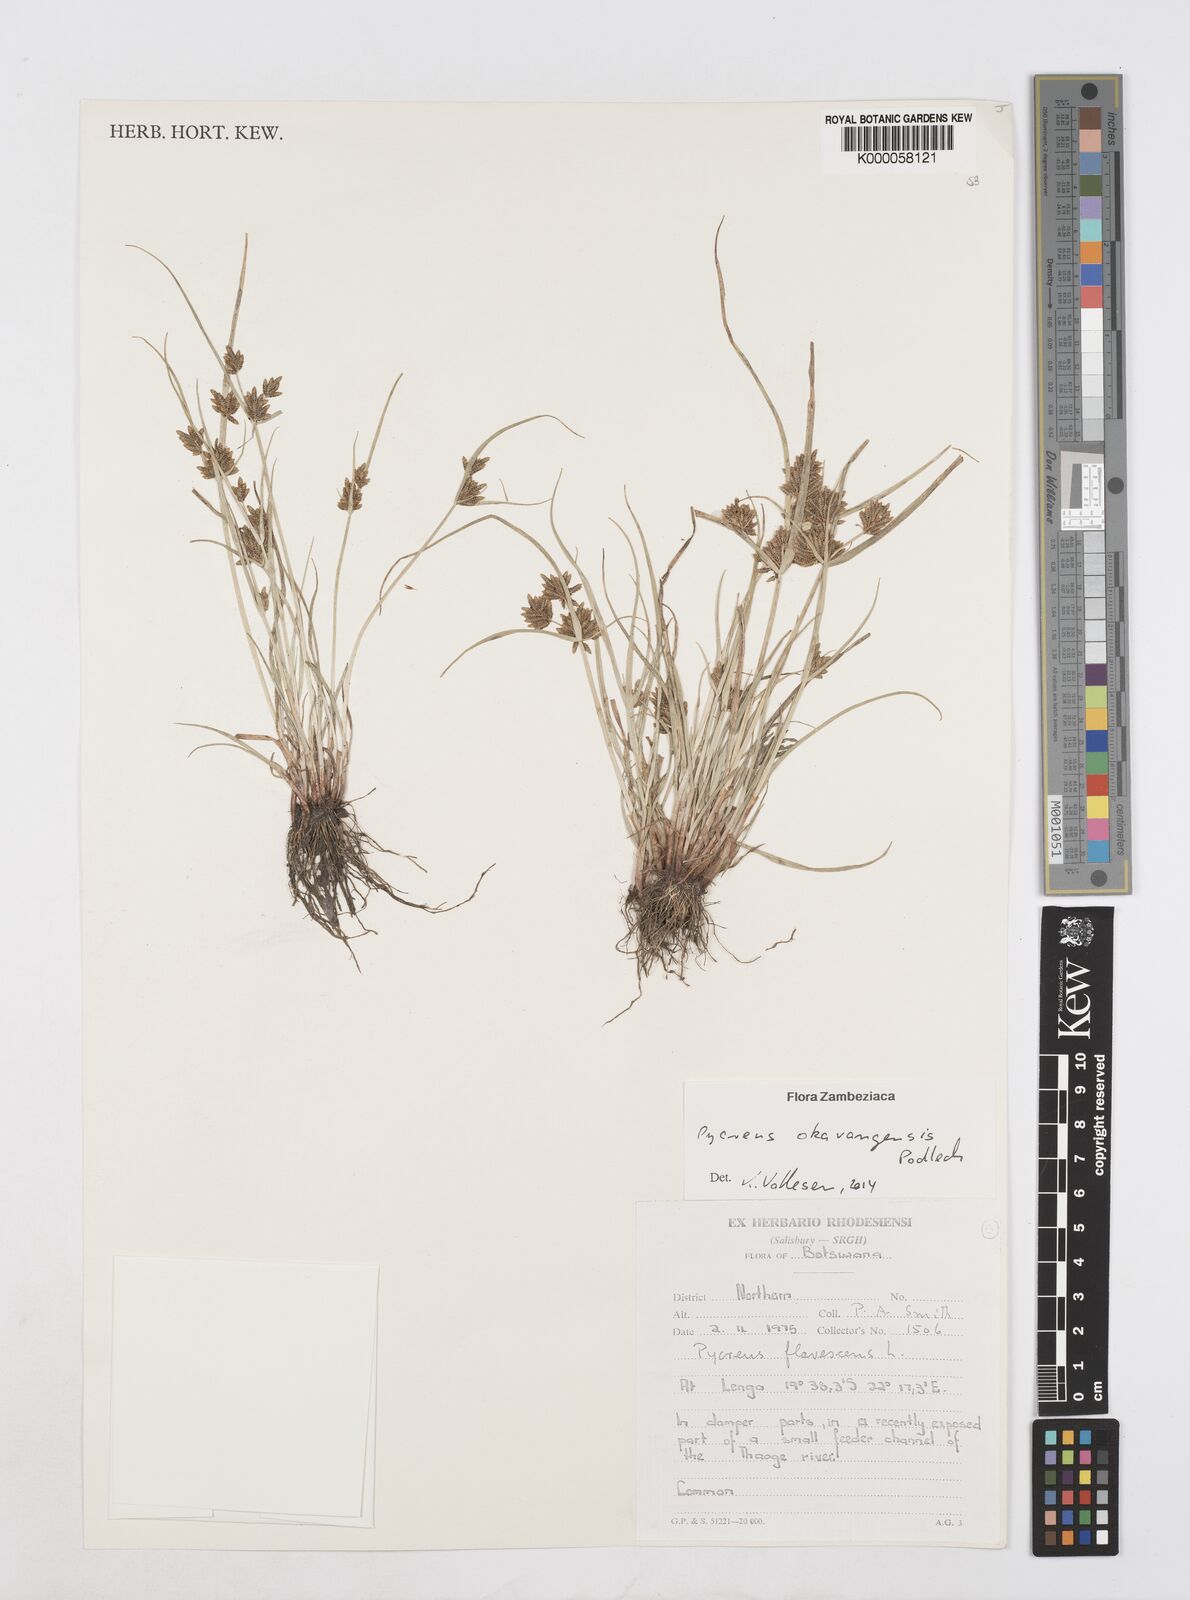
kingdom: Plantae
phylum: Tracheophyta
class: Liliopsida
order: Poales
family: Cyperaceae
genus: Cyperus
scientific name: Cyperus okavangensis
